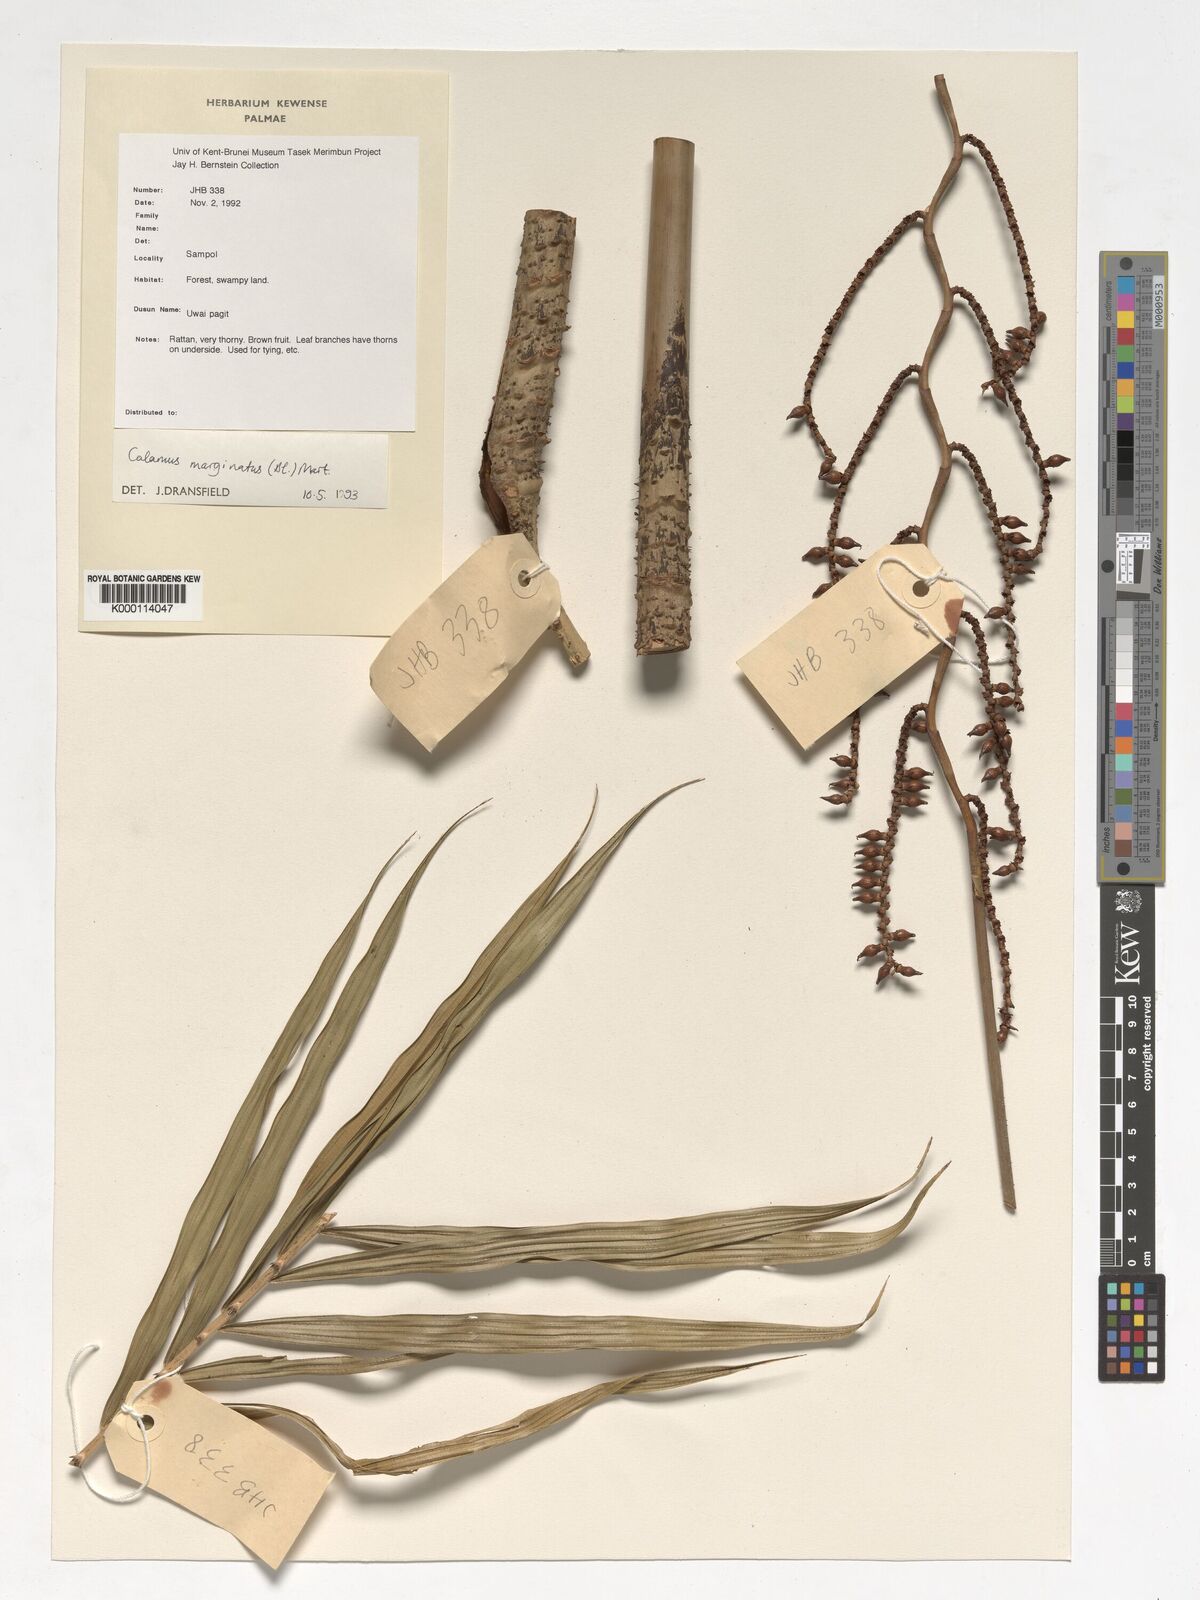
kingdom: Plantae
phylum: Tracheophyta
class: Liliopsida
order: Arecales
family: Arecaceae
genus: Calamus
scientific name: Calamus
